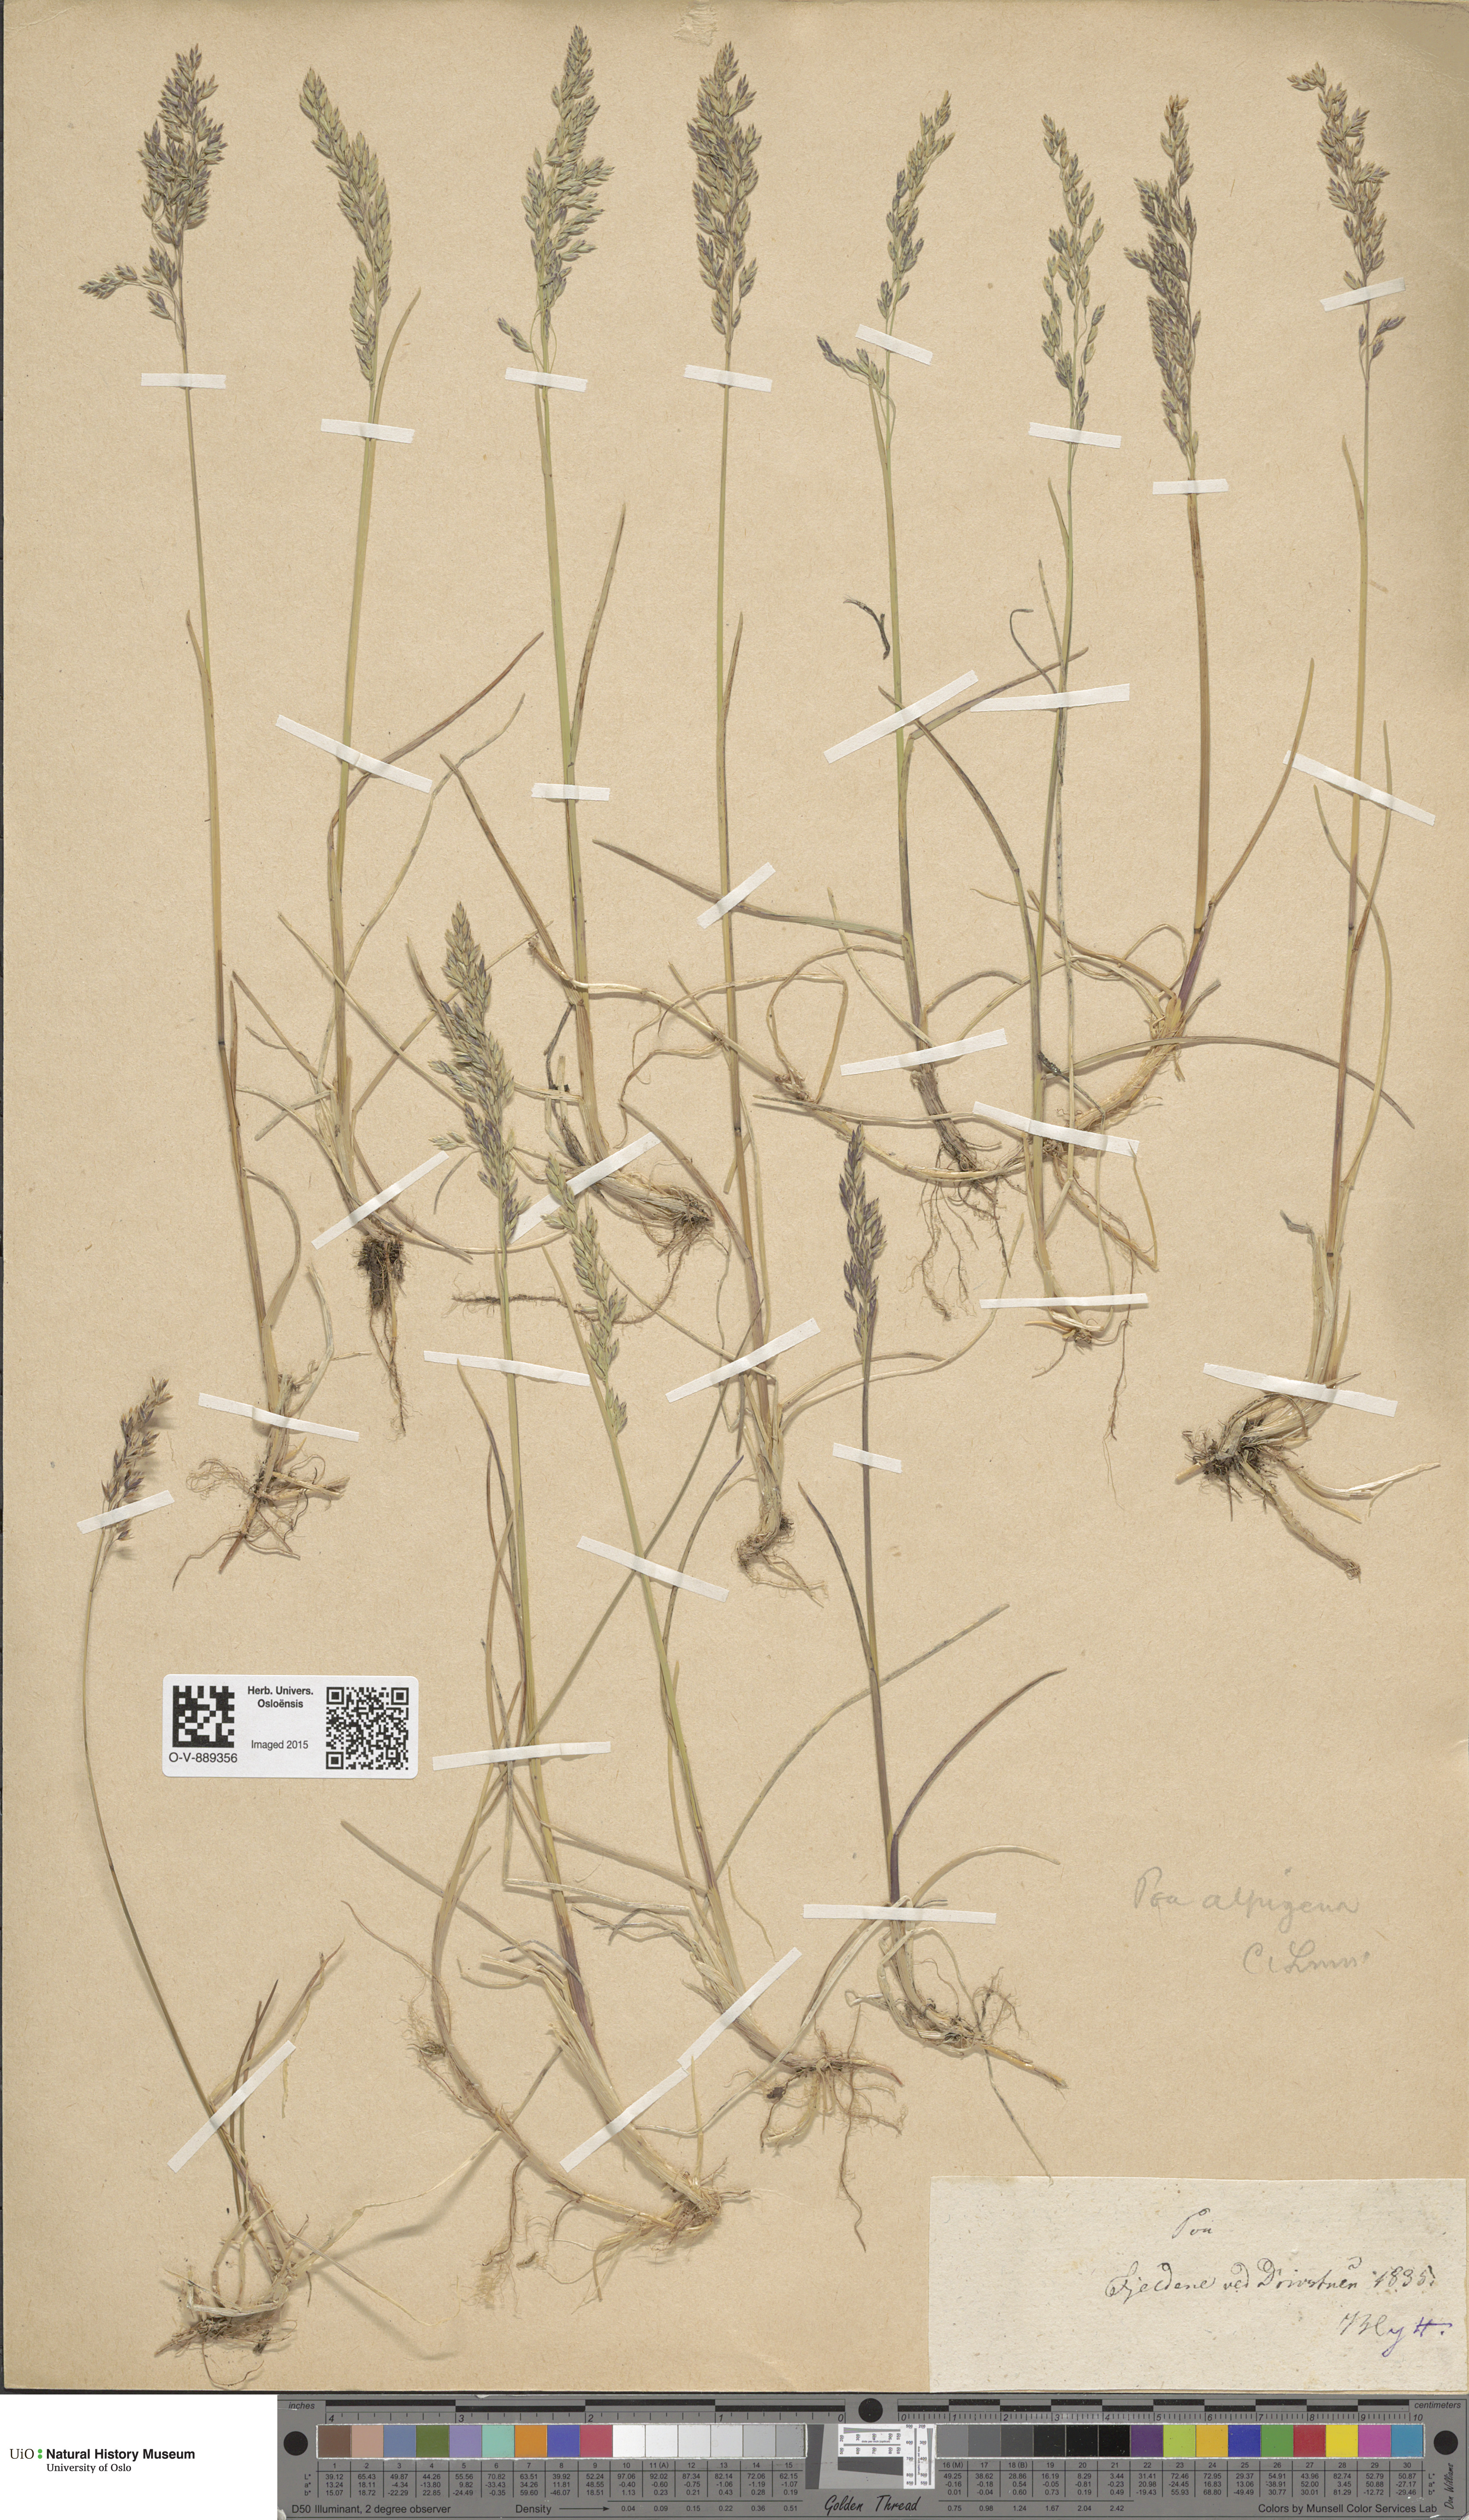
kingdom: Plantae
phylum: Tracheophyta
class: Liliopsida
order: Poales
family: Poaceae
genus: Poa
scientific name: Poa alpigena
